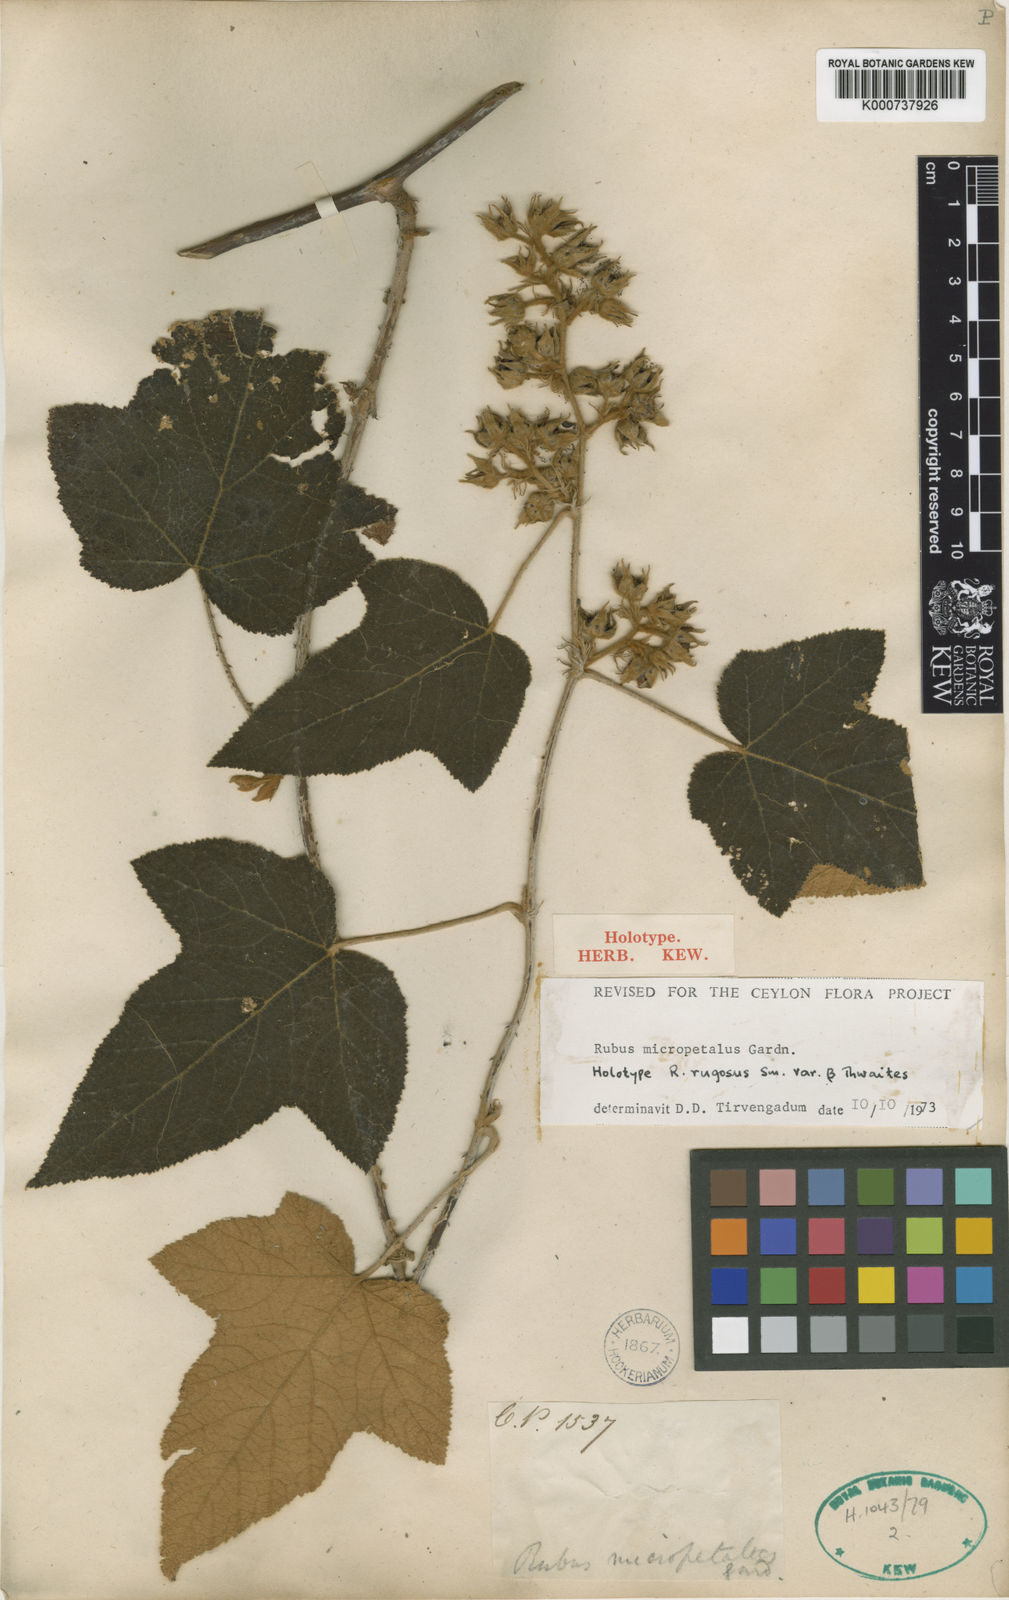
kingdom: Plantae
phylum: Tracheophyta
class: Magnoliopsida
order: Rosales
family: Rosaceae
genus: Rubus
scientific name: Rubus micropetalus
